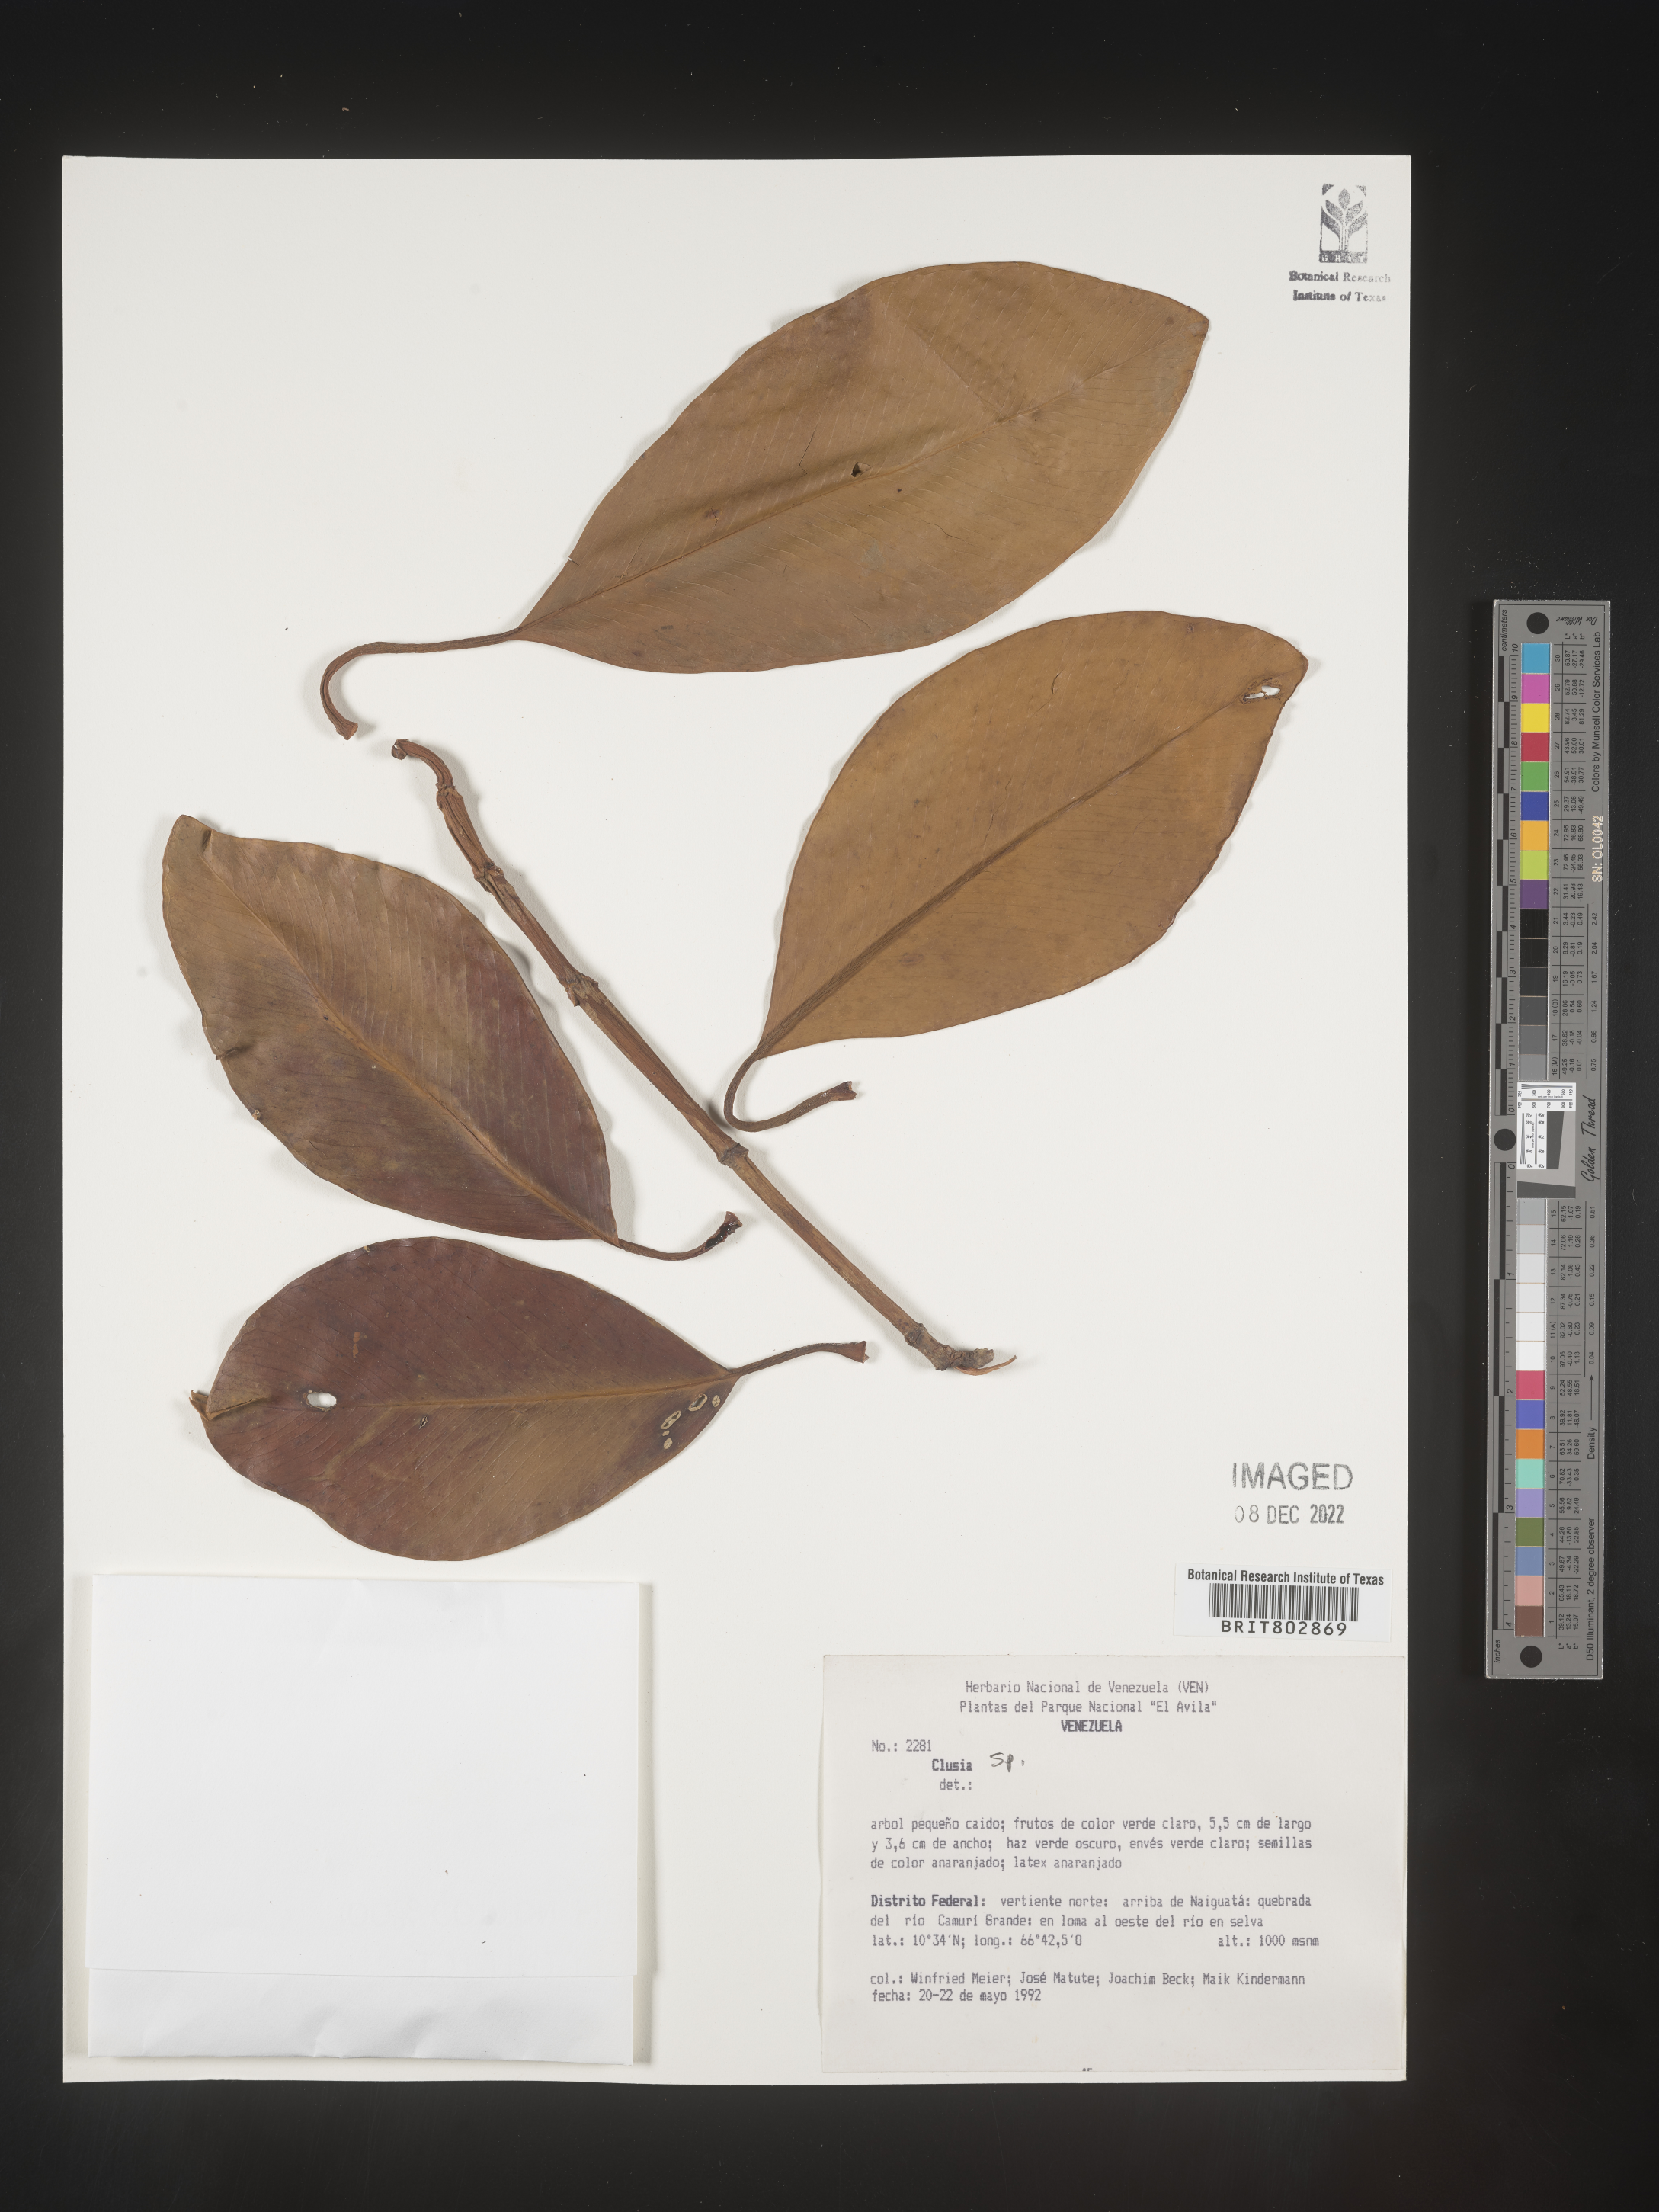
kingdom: Plantae
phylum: Tracheophyta
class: Magnoliopsida
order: Malpighiales
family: Clusiaceae
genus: Clusia
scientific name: Clusia
